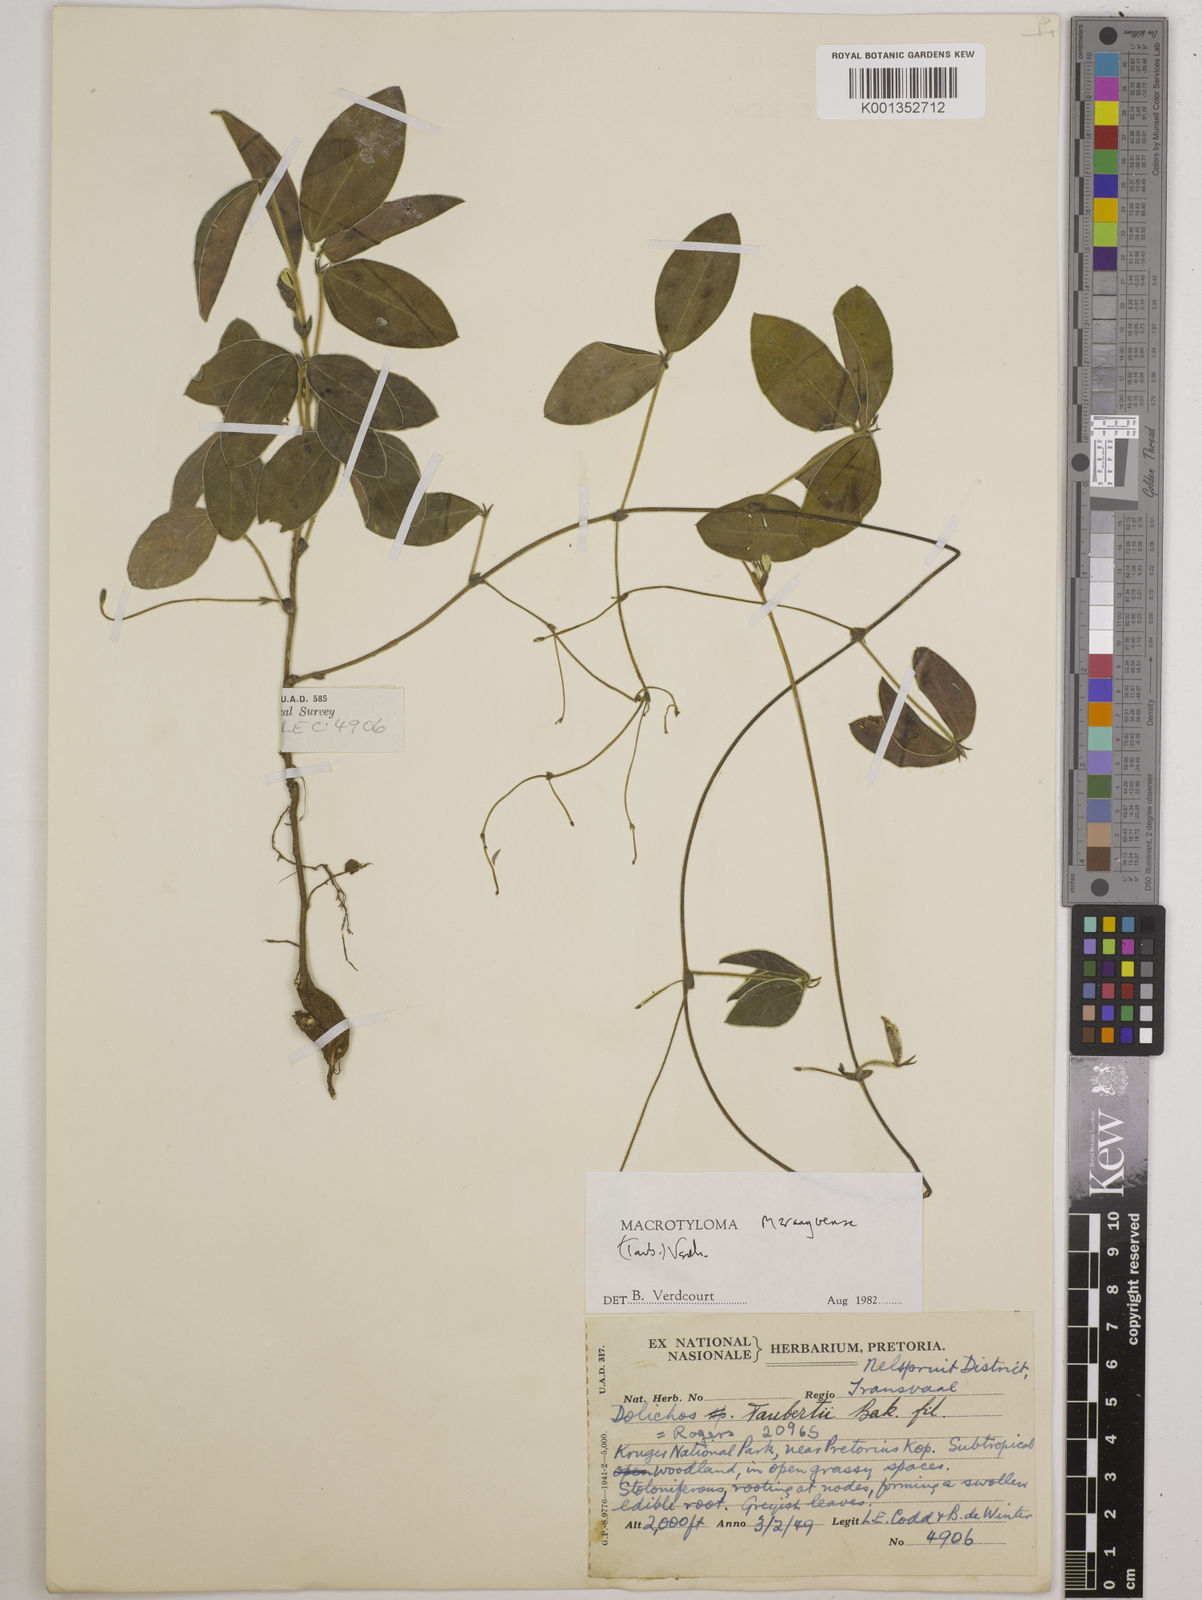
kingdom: Plantae
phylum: Tracheophyta
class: Magnoliopsida
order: Fabales
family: Fabaceae
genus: Macrotyloma
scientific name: Macrotyloma maranguense
